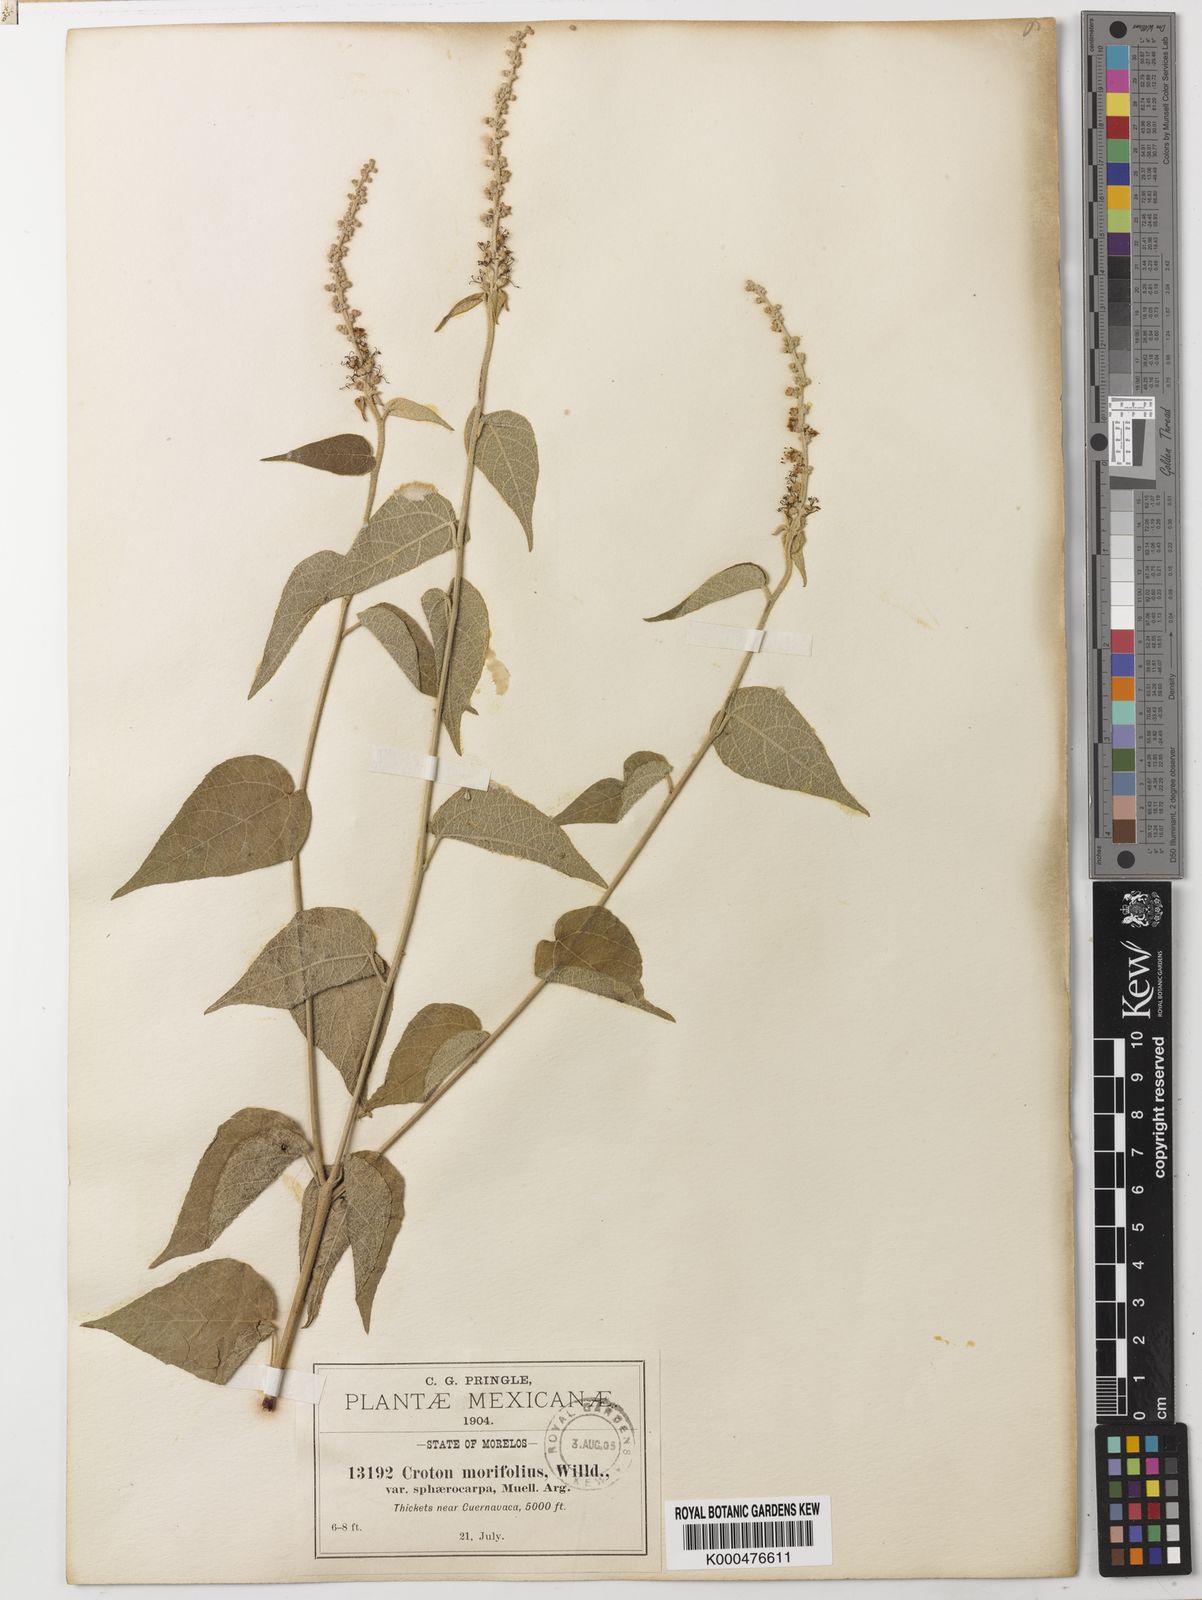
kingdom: Plantae
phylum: Tracheophyta
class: Magnoliopsida
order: Malpighiales
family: Euphorbiaceae
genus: Croton
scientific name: Croton morifolius
